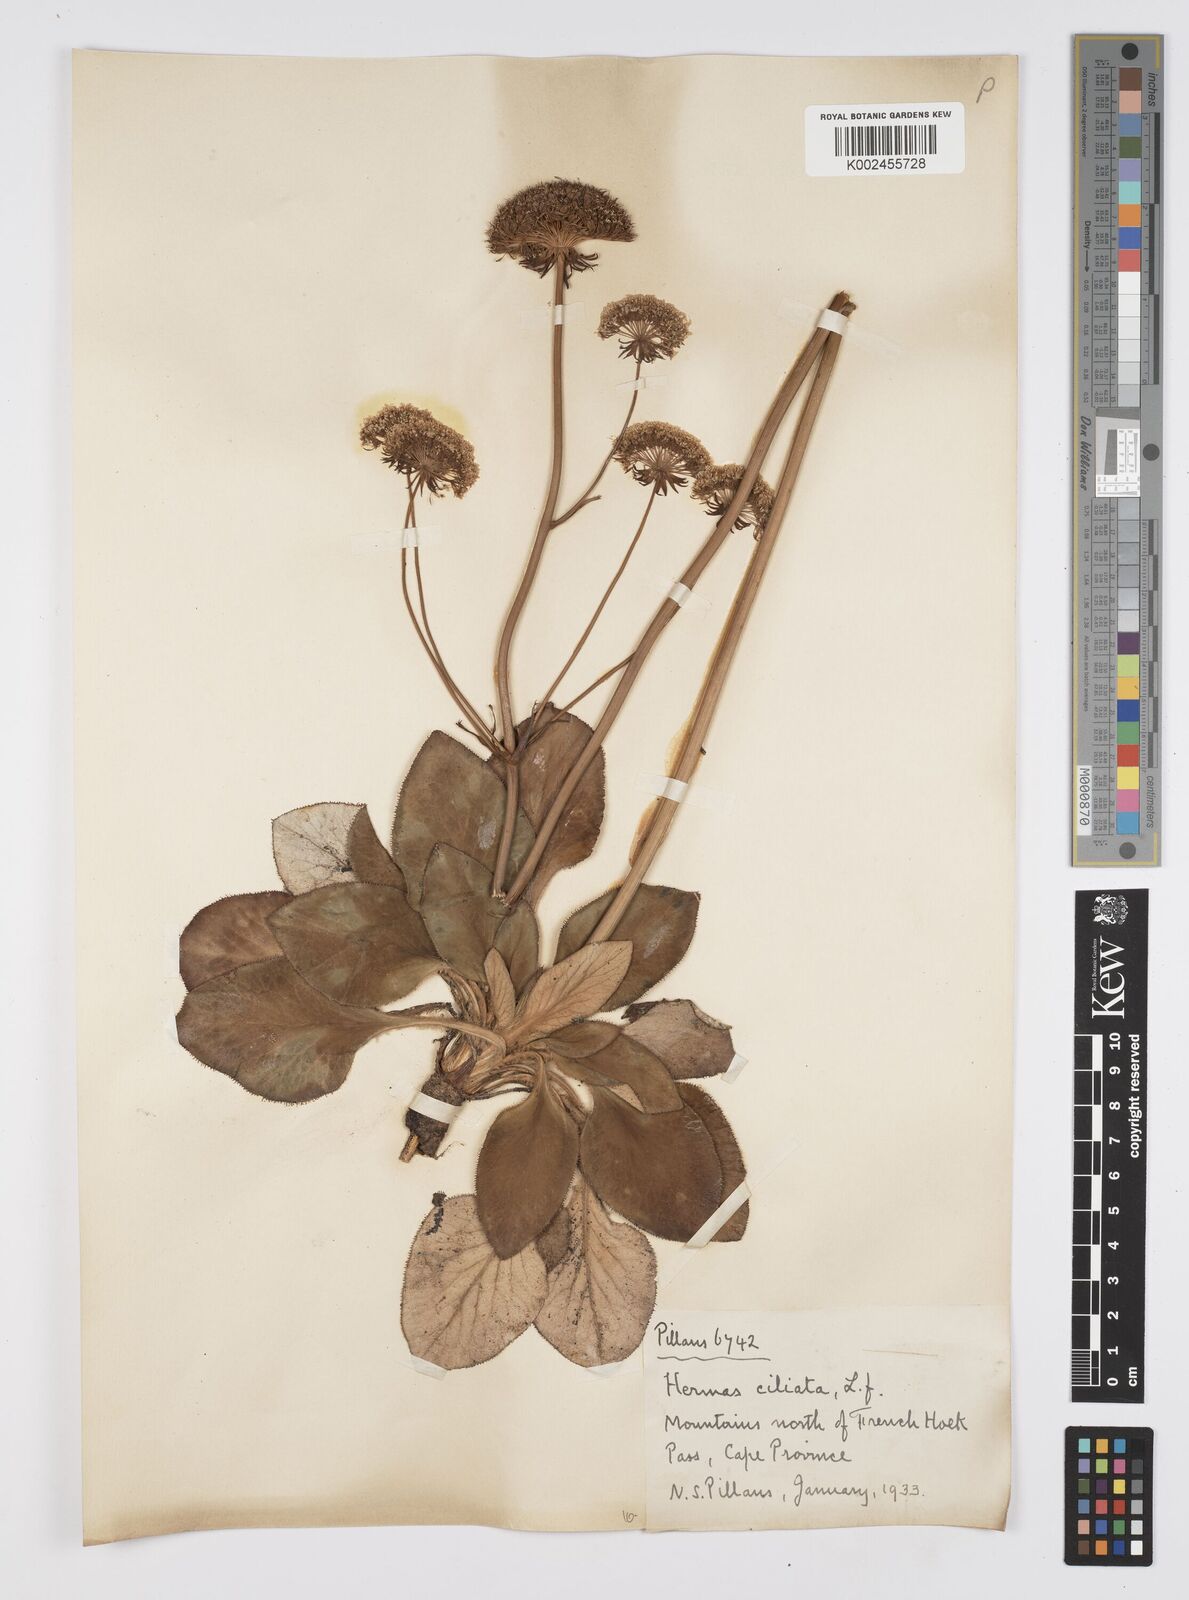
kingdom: Plantae
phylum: Tracheophyta
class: Magnoliopsida
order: Apiales
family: Apiaceae
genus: Hermas
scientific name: Hermas ciliata
